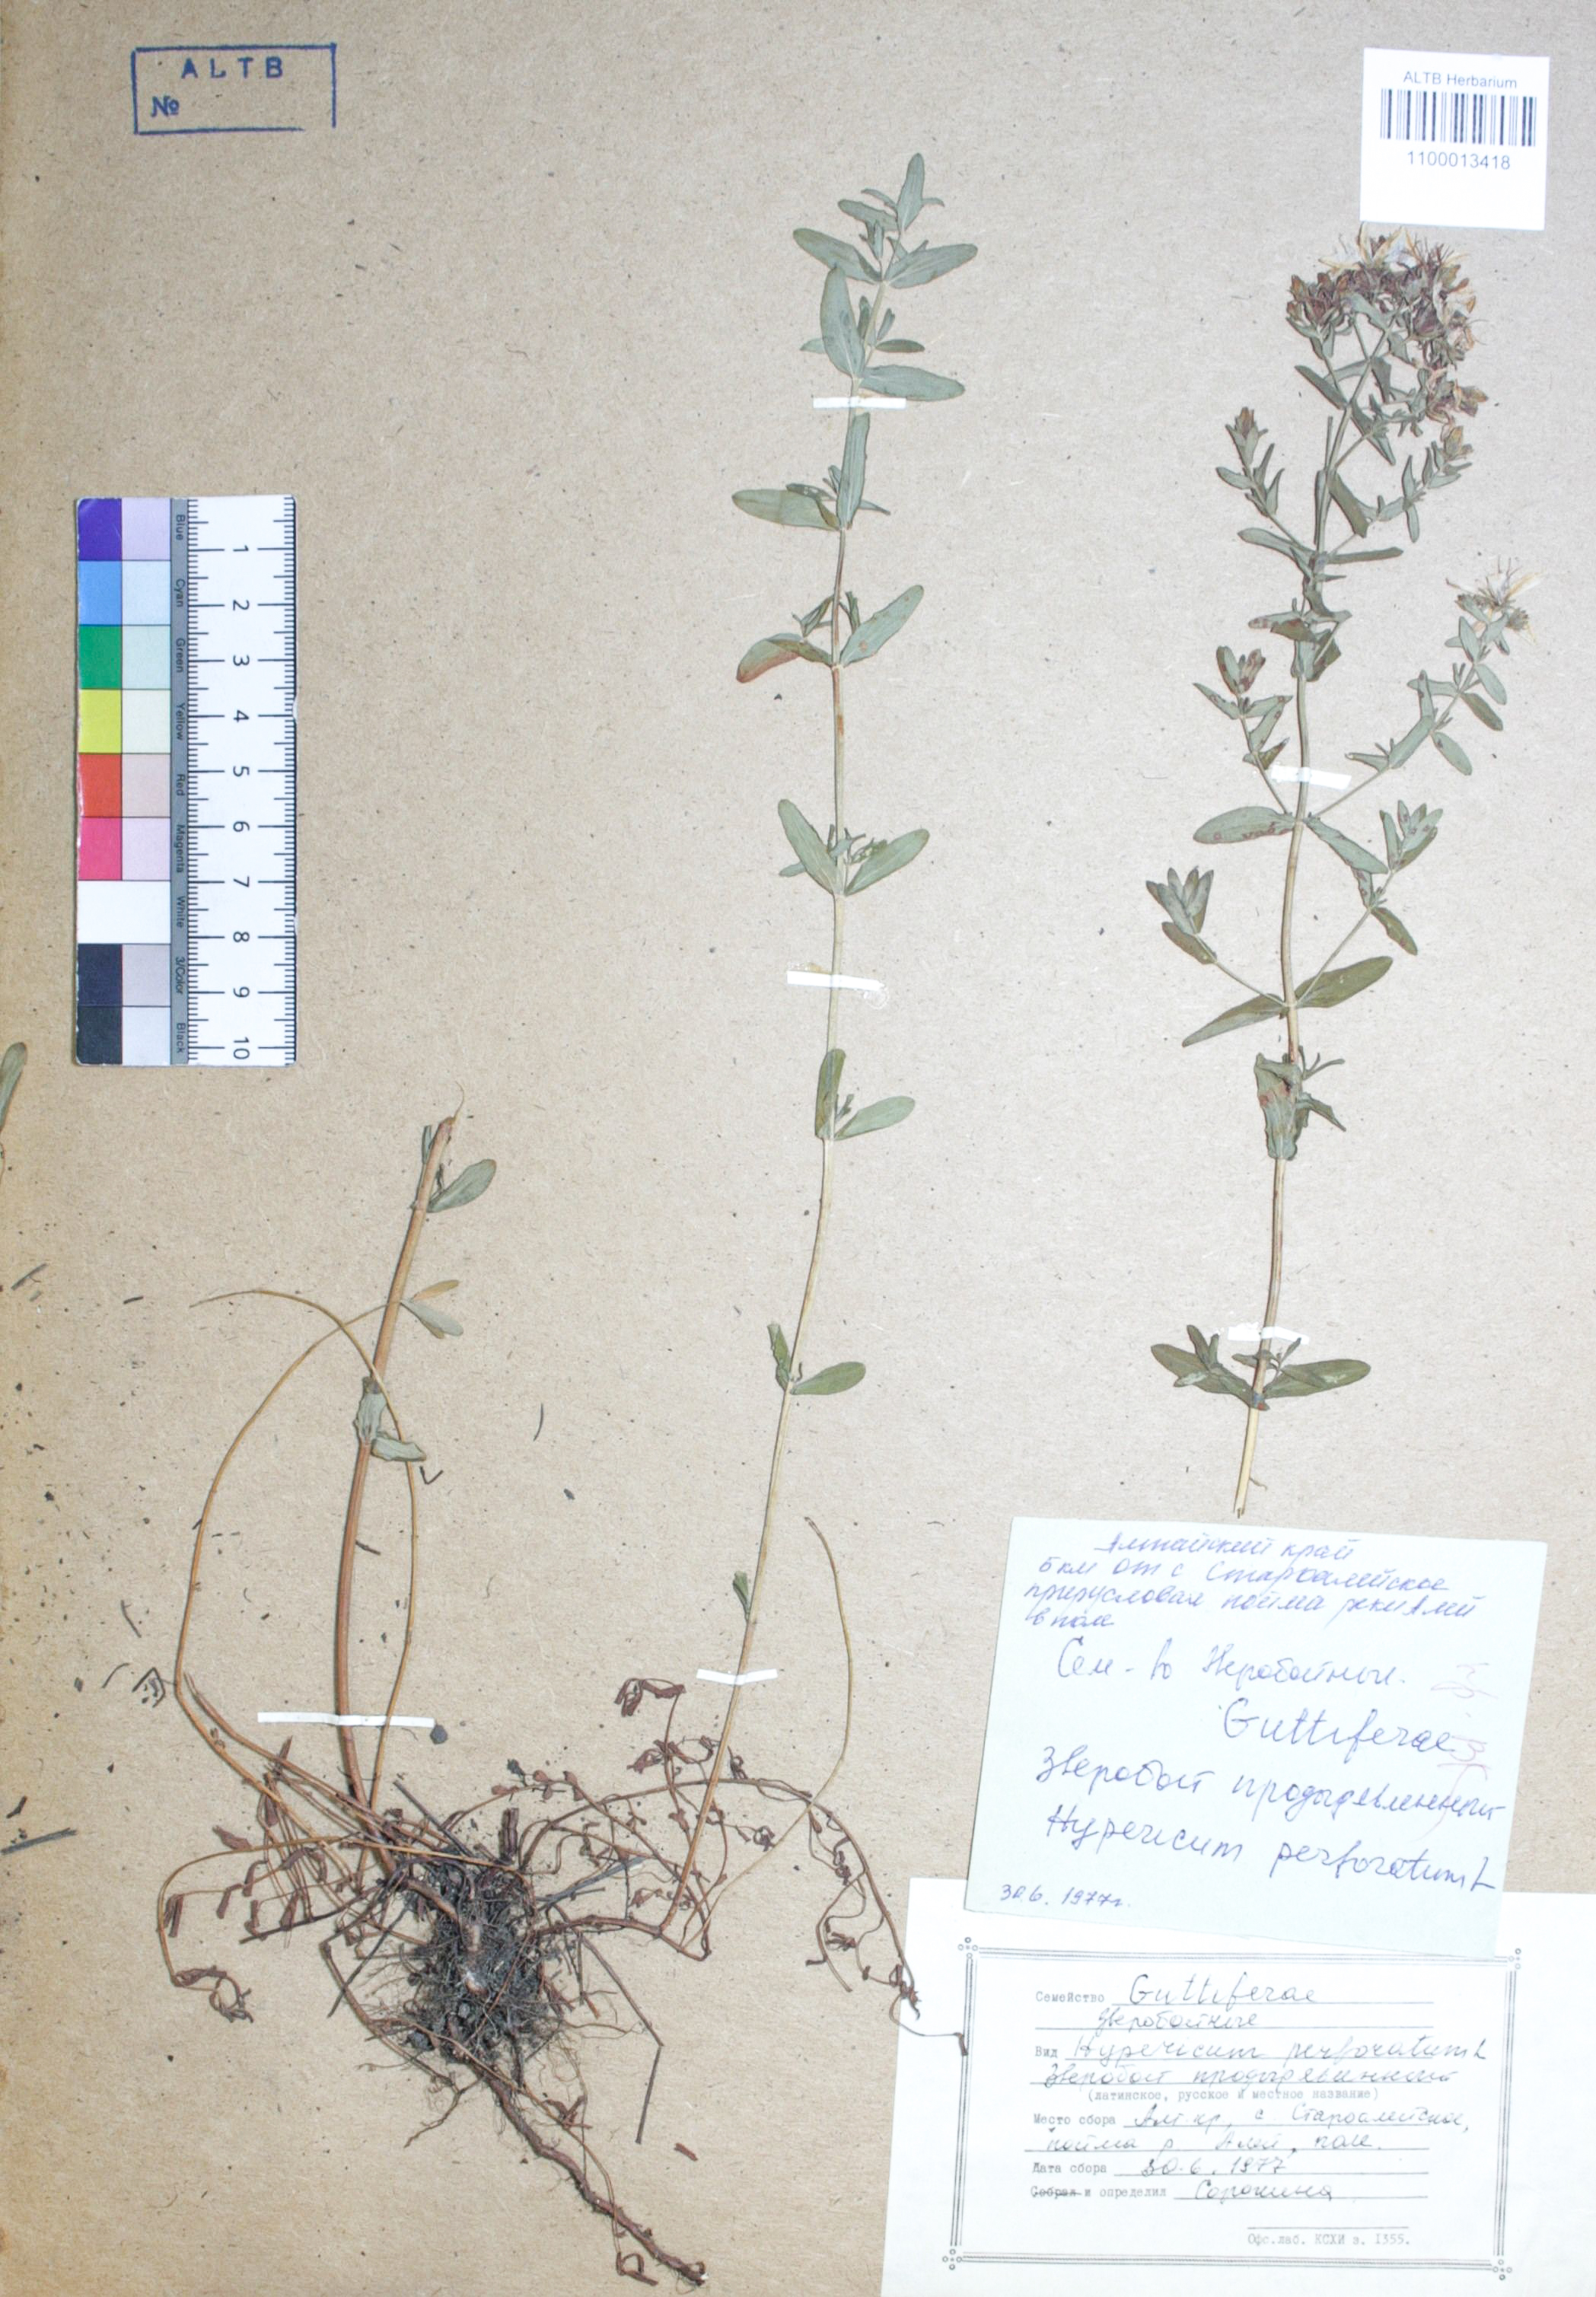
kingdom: Plantae
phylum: Tracheophyta
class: Magnoliopsida
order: Malpighiales
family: Hypericaceae
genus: Hypericum
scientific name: Hypericum perforatum
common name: Common st. johnswort
